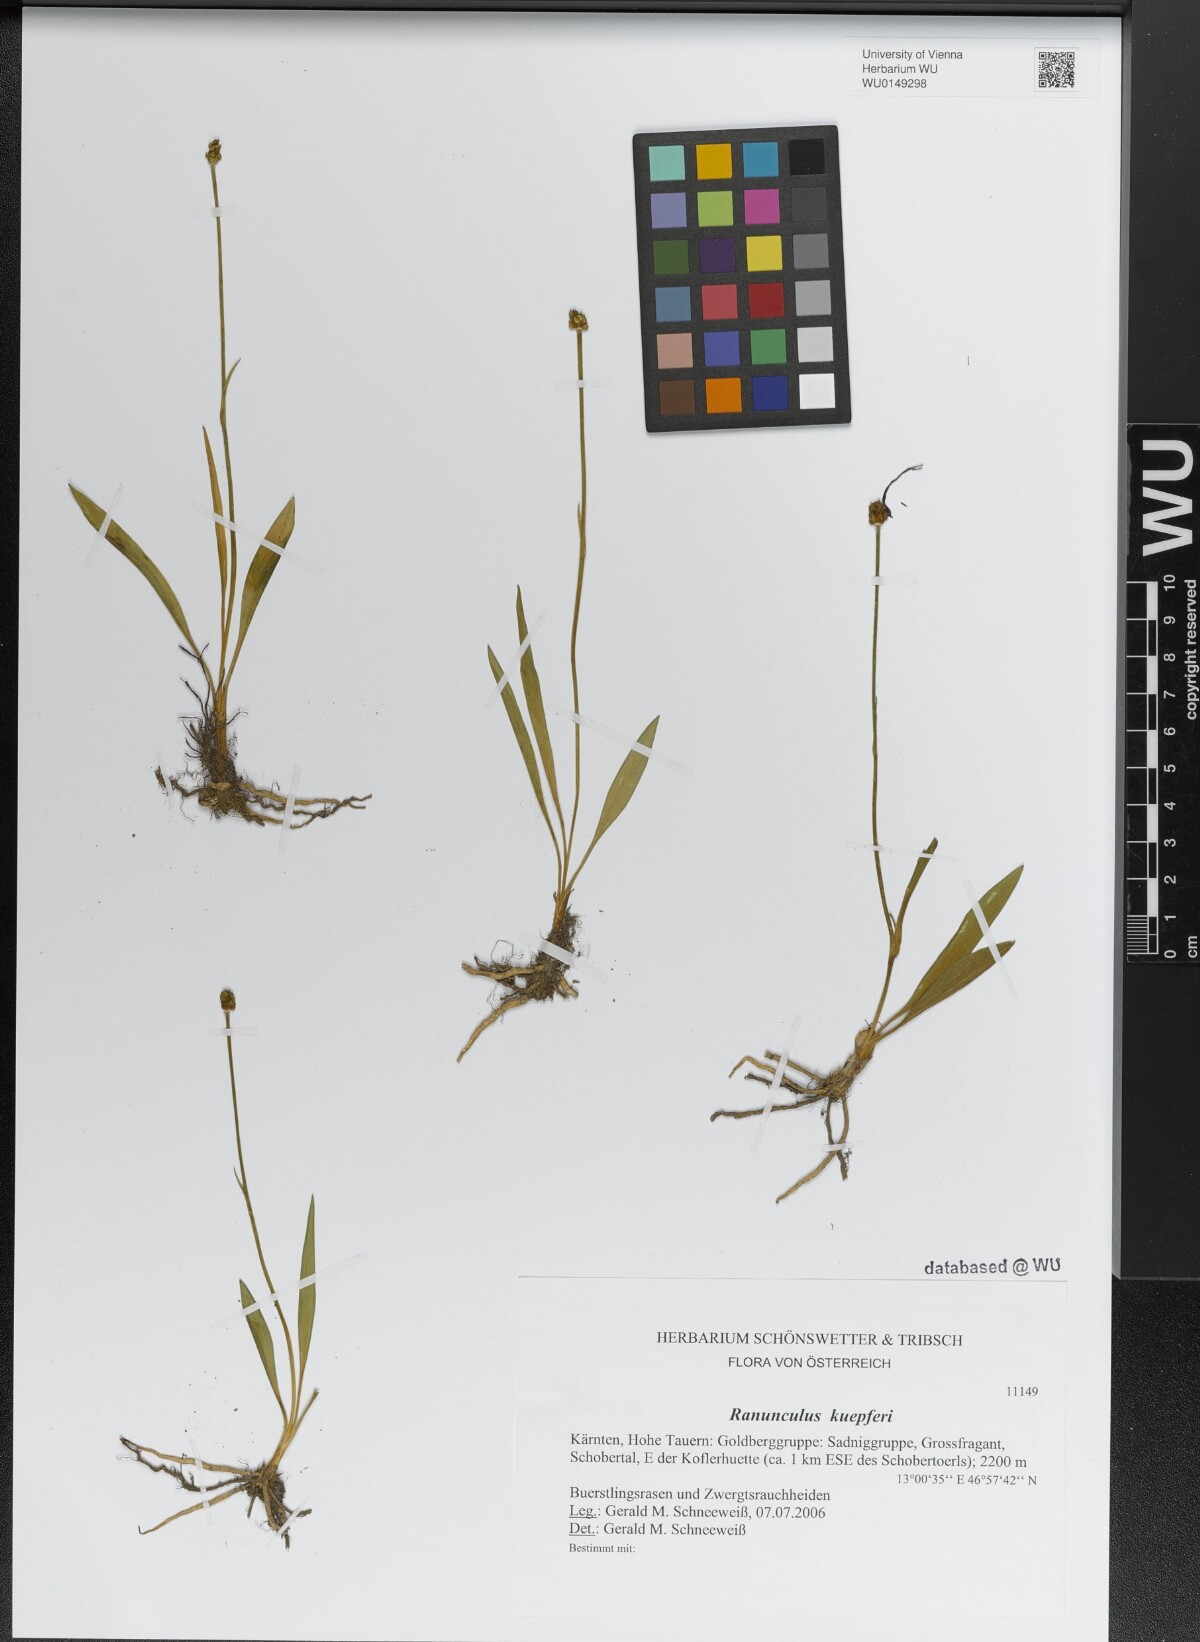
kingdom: Plantae
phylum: Tracheophyta
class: Magnoliopsida
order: Ranunculales
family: Ranunculaceae
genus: Ranunculus
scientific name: Ranunculus kuepferi
